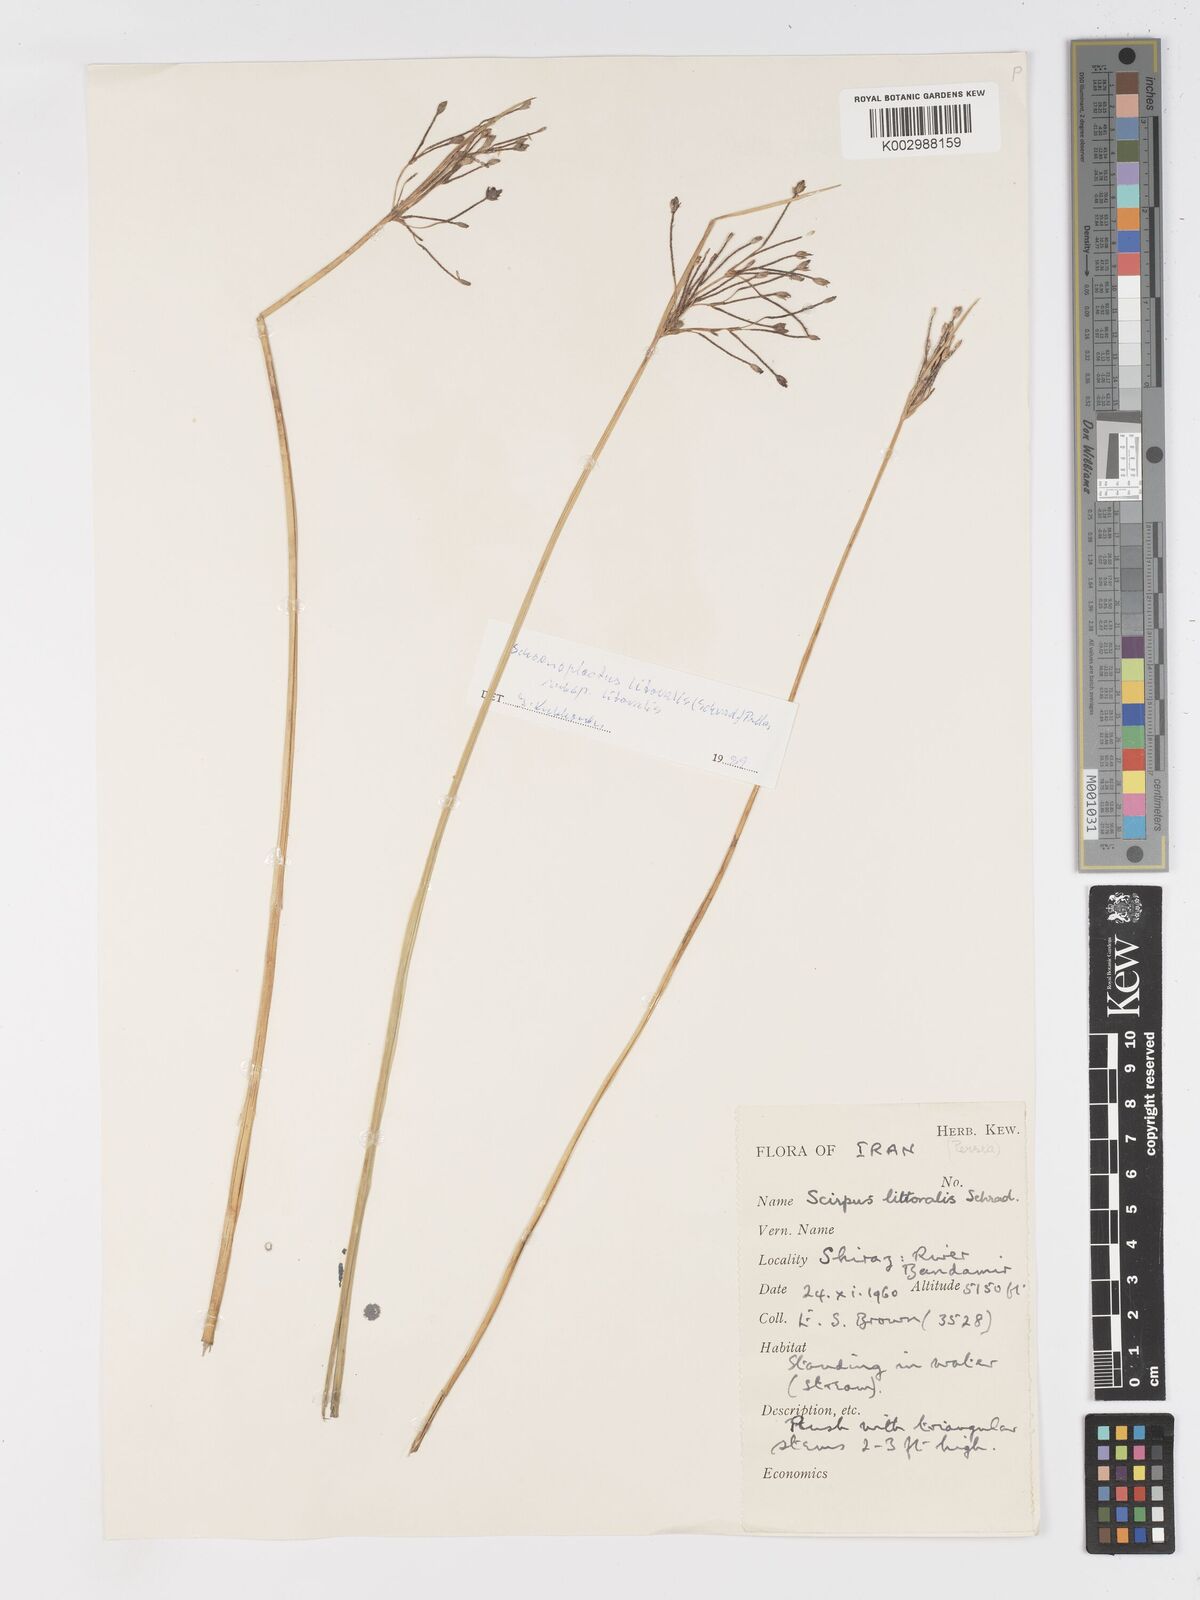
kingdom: Plantae
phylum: Tracheophyta
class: Liliopsida
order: Poales
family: Cyperaceae
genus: Schoenoplectus
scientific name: Schoenoplectus litoralis
